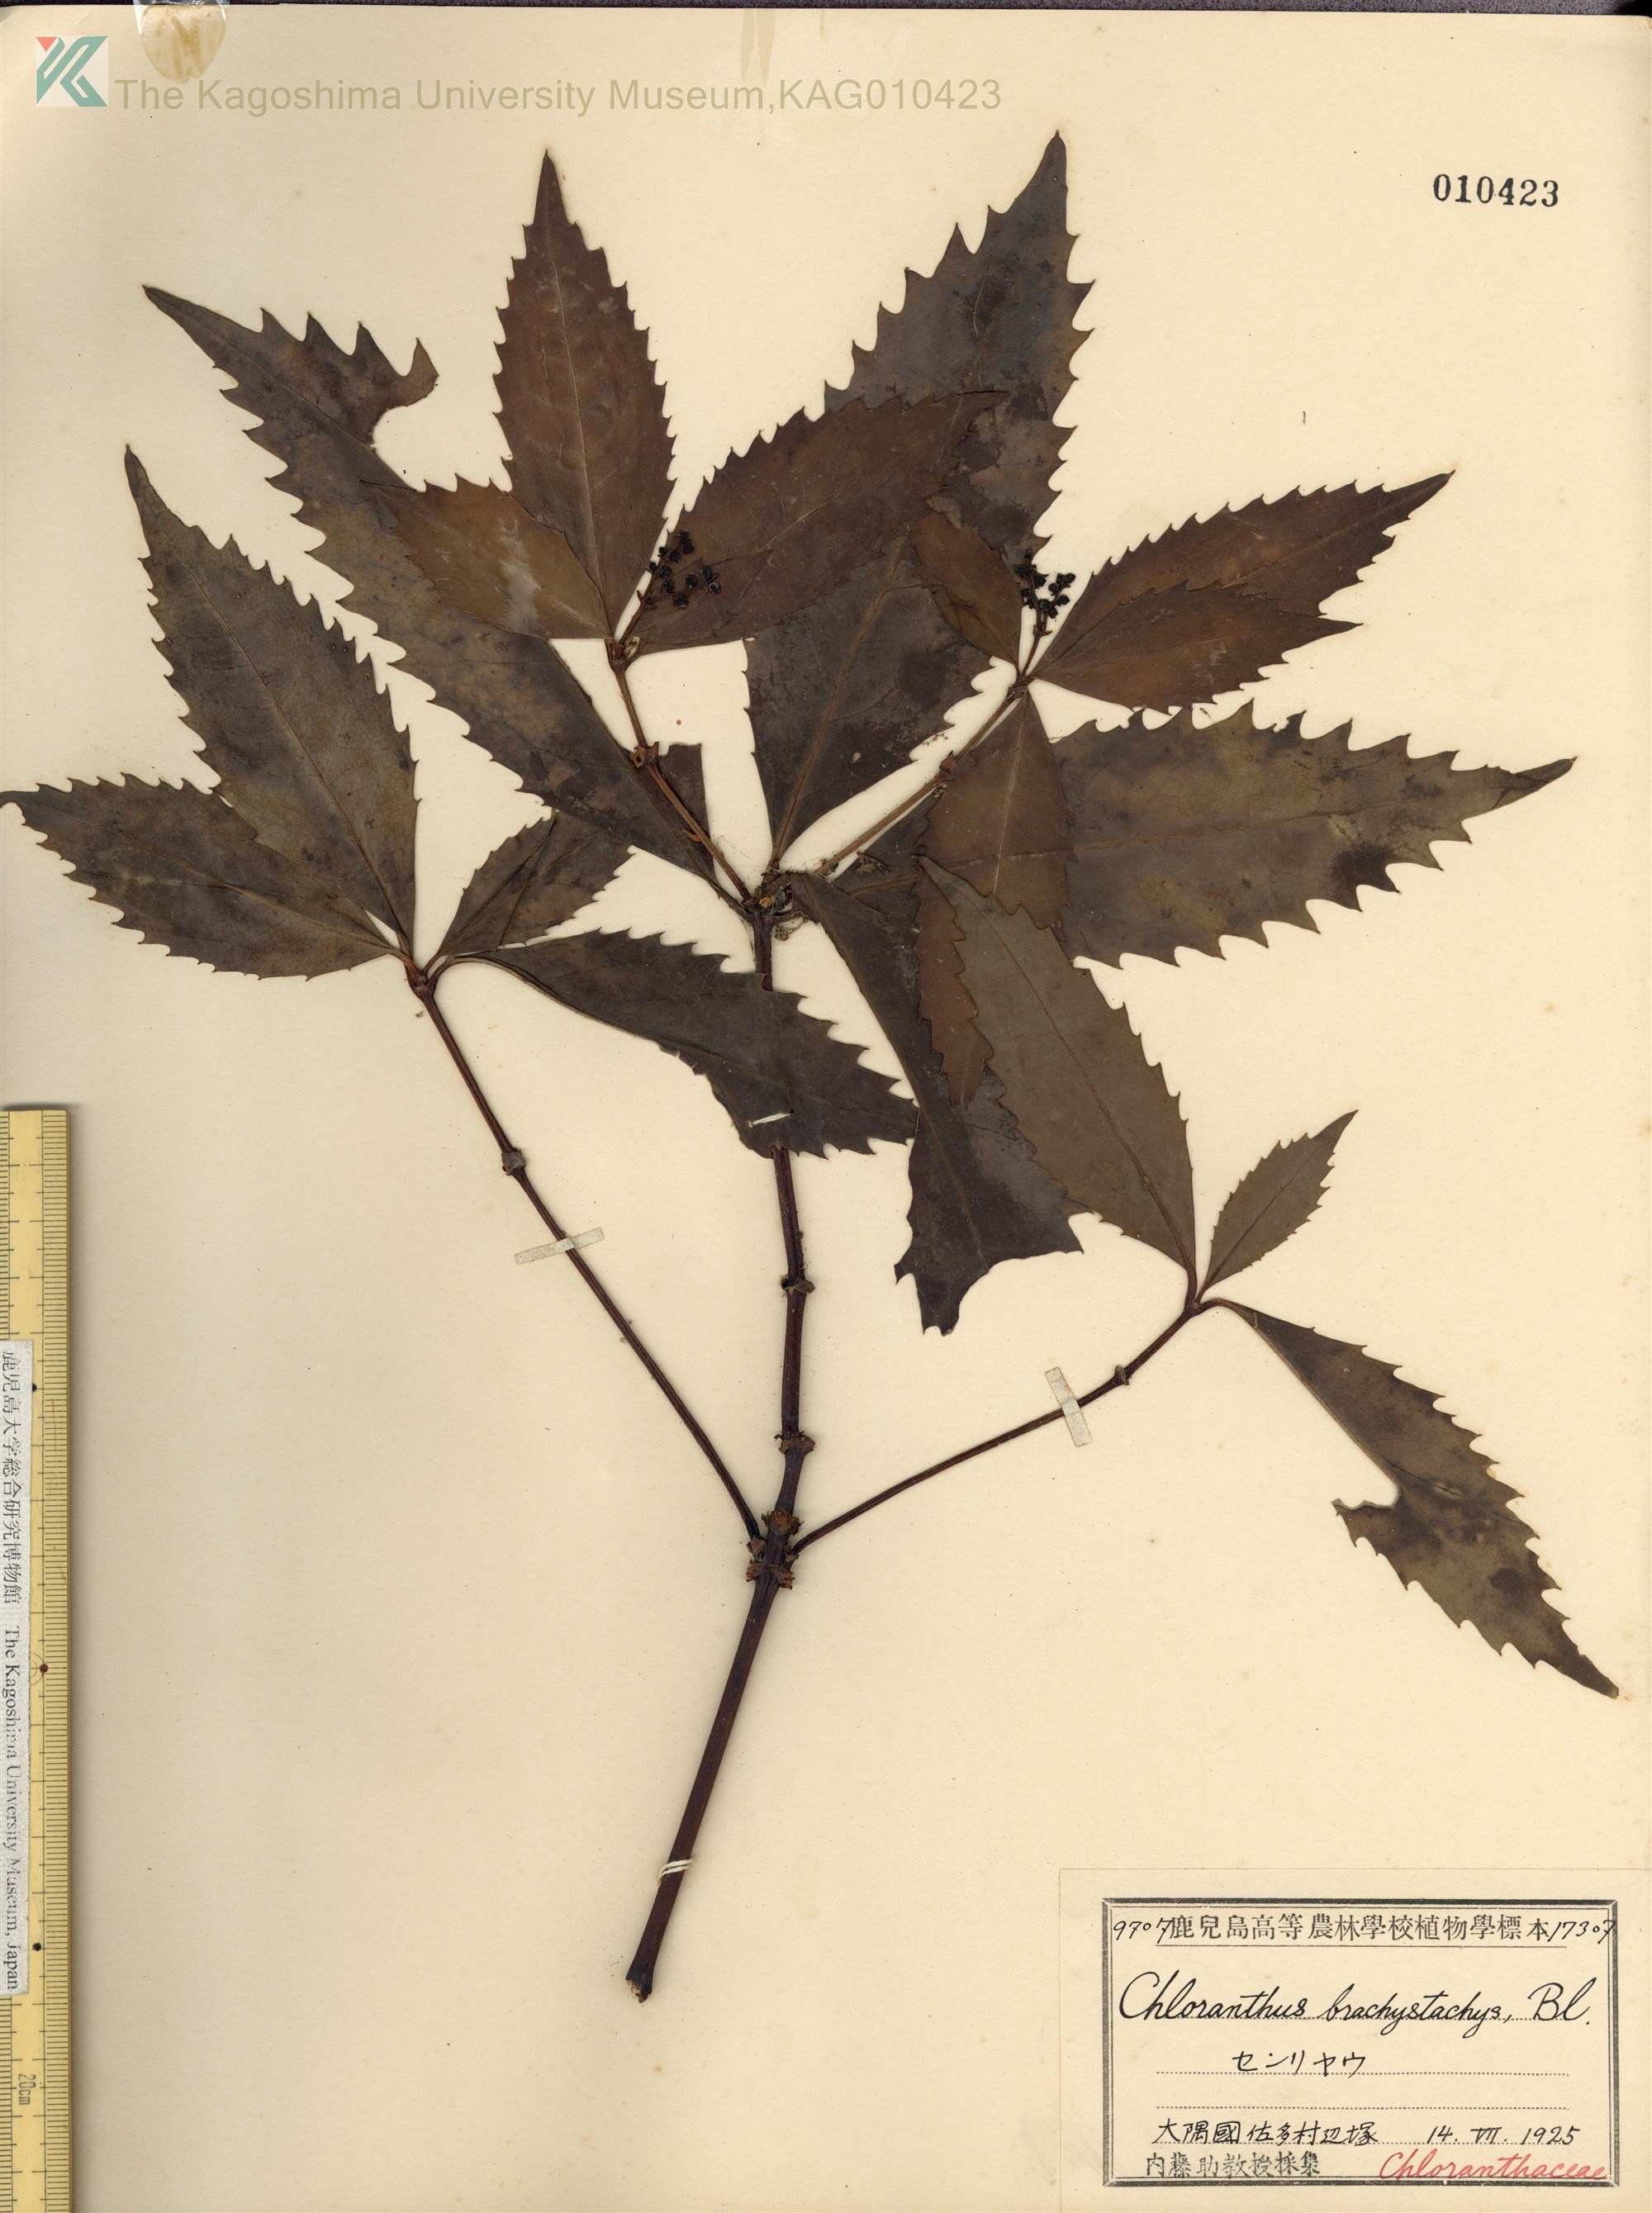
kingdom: Plantae
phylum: Tracheophyta
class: Magnoliopsida
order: Chloranthales
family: Chloranthaceae
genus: Sarcandra
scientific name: Sarcandra glabra
